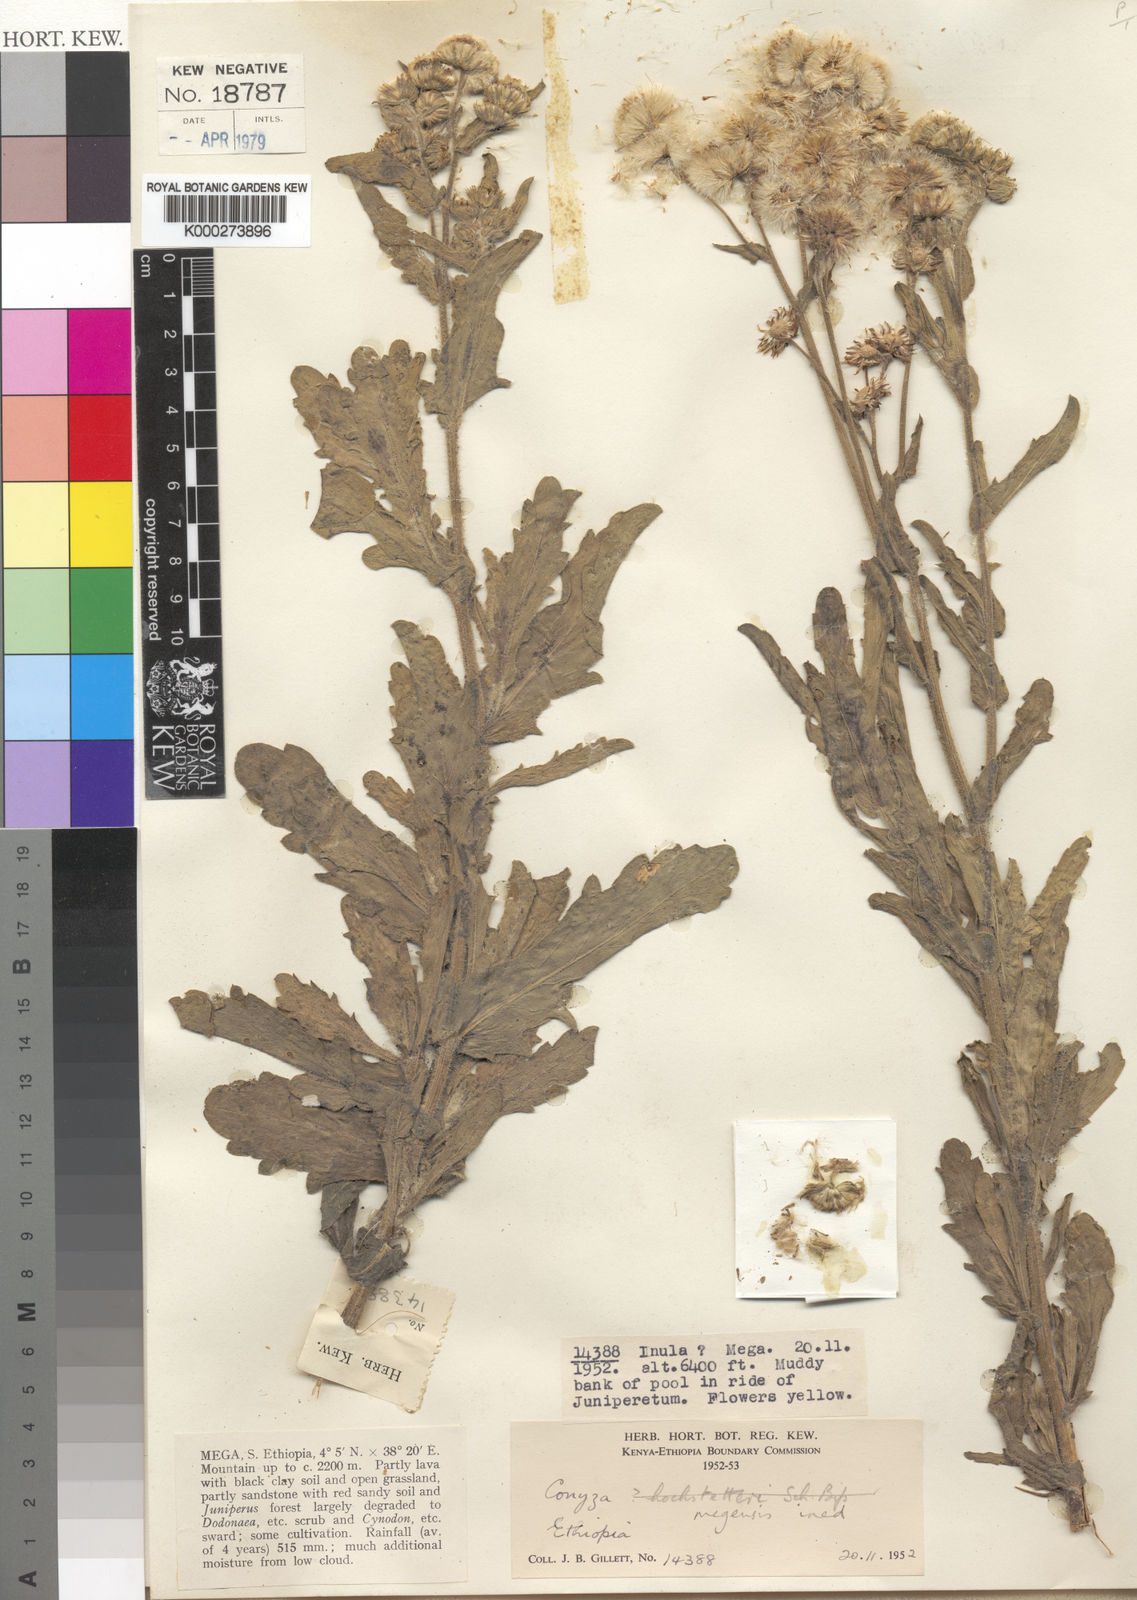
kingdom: Plantae
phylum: Tracheophyta
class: Magnoliopsida
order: Asterales
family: Asteraceae
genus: Conyza
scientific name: Conyza megensis
